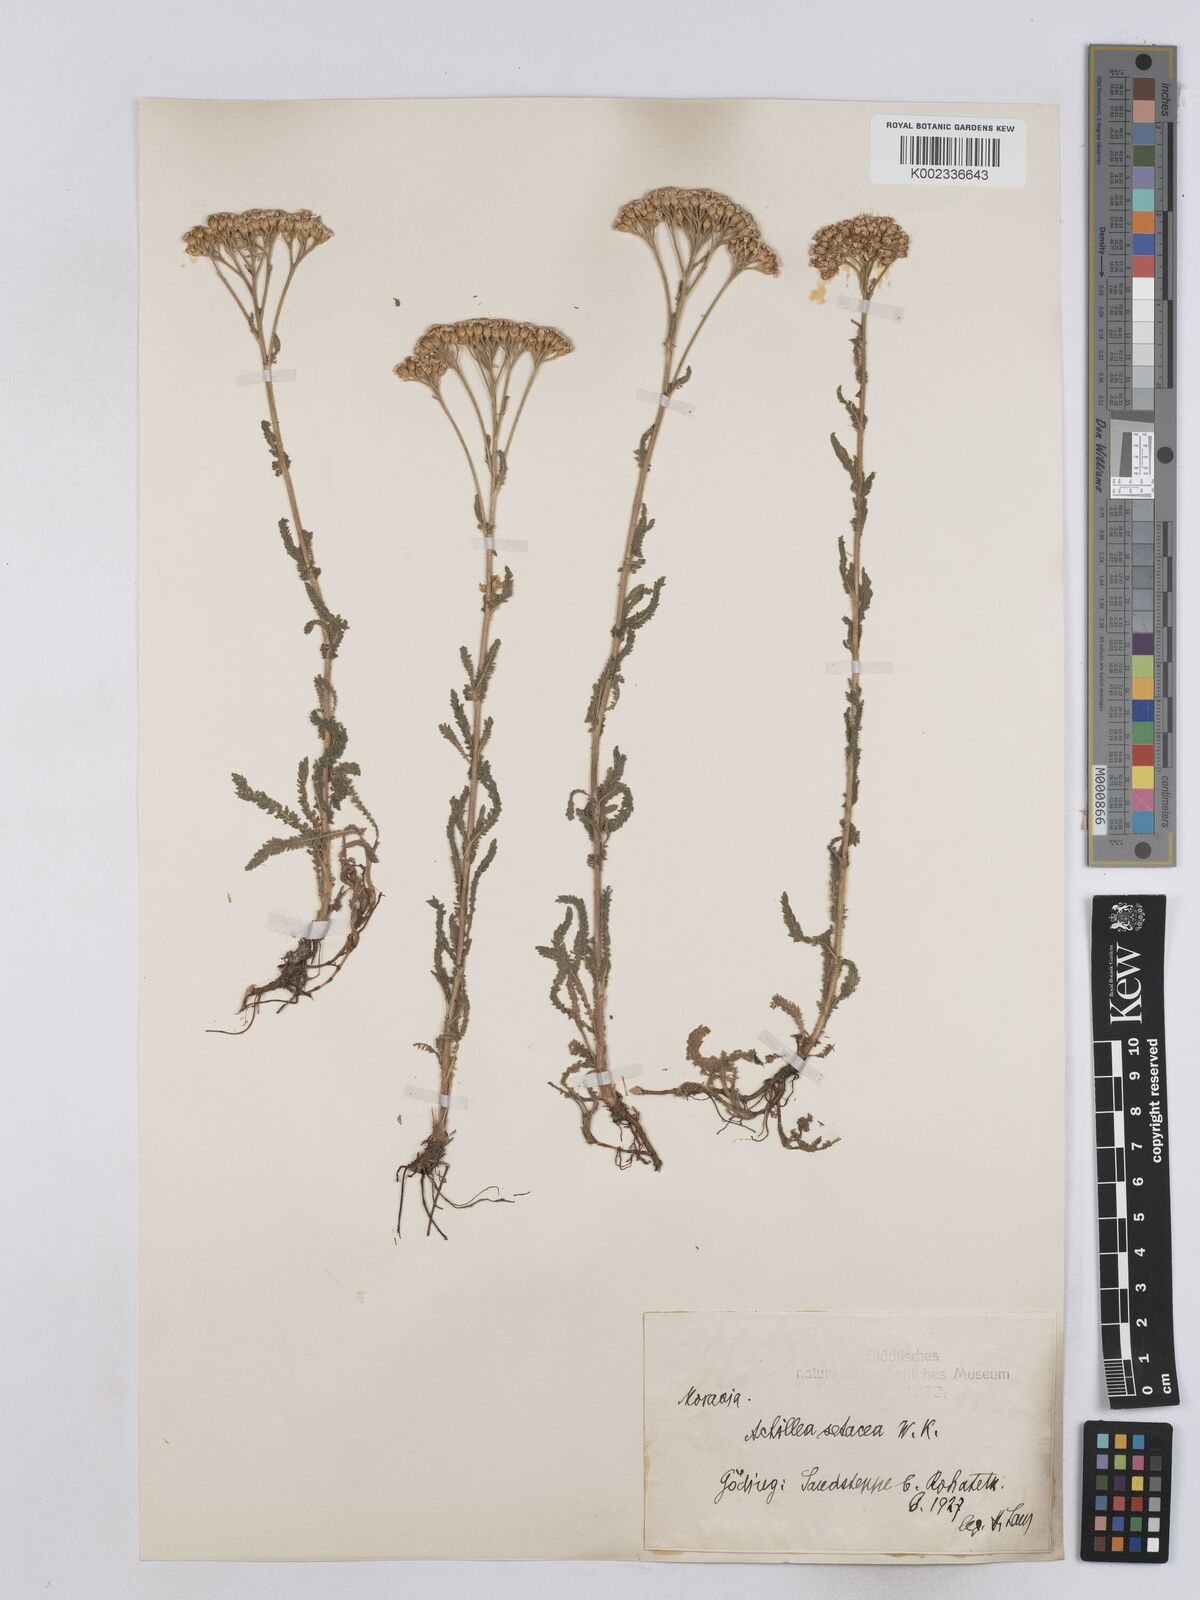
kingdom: Plantae
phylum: Tracheophyta
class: Magnoliopsida
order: Asterales
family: Asteraceae
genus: Achillea
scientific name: Achillea setacea
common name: Bristly yarrow
